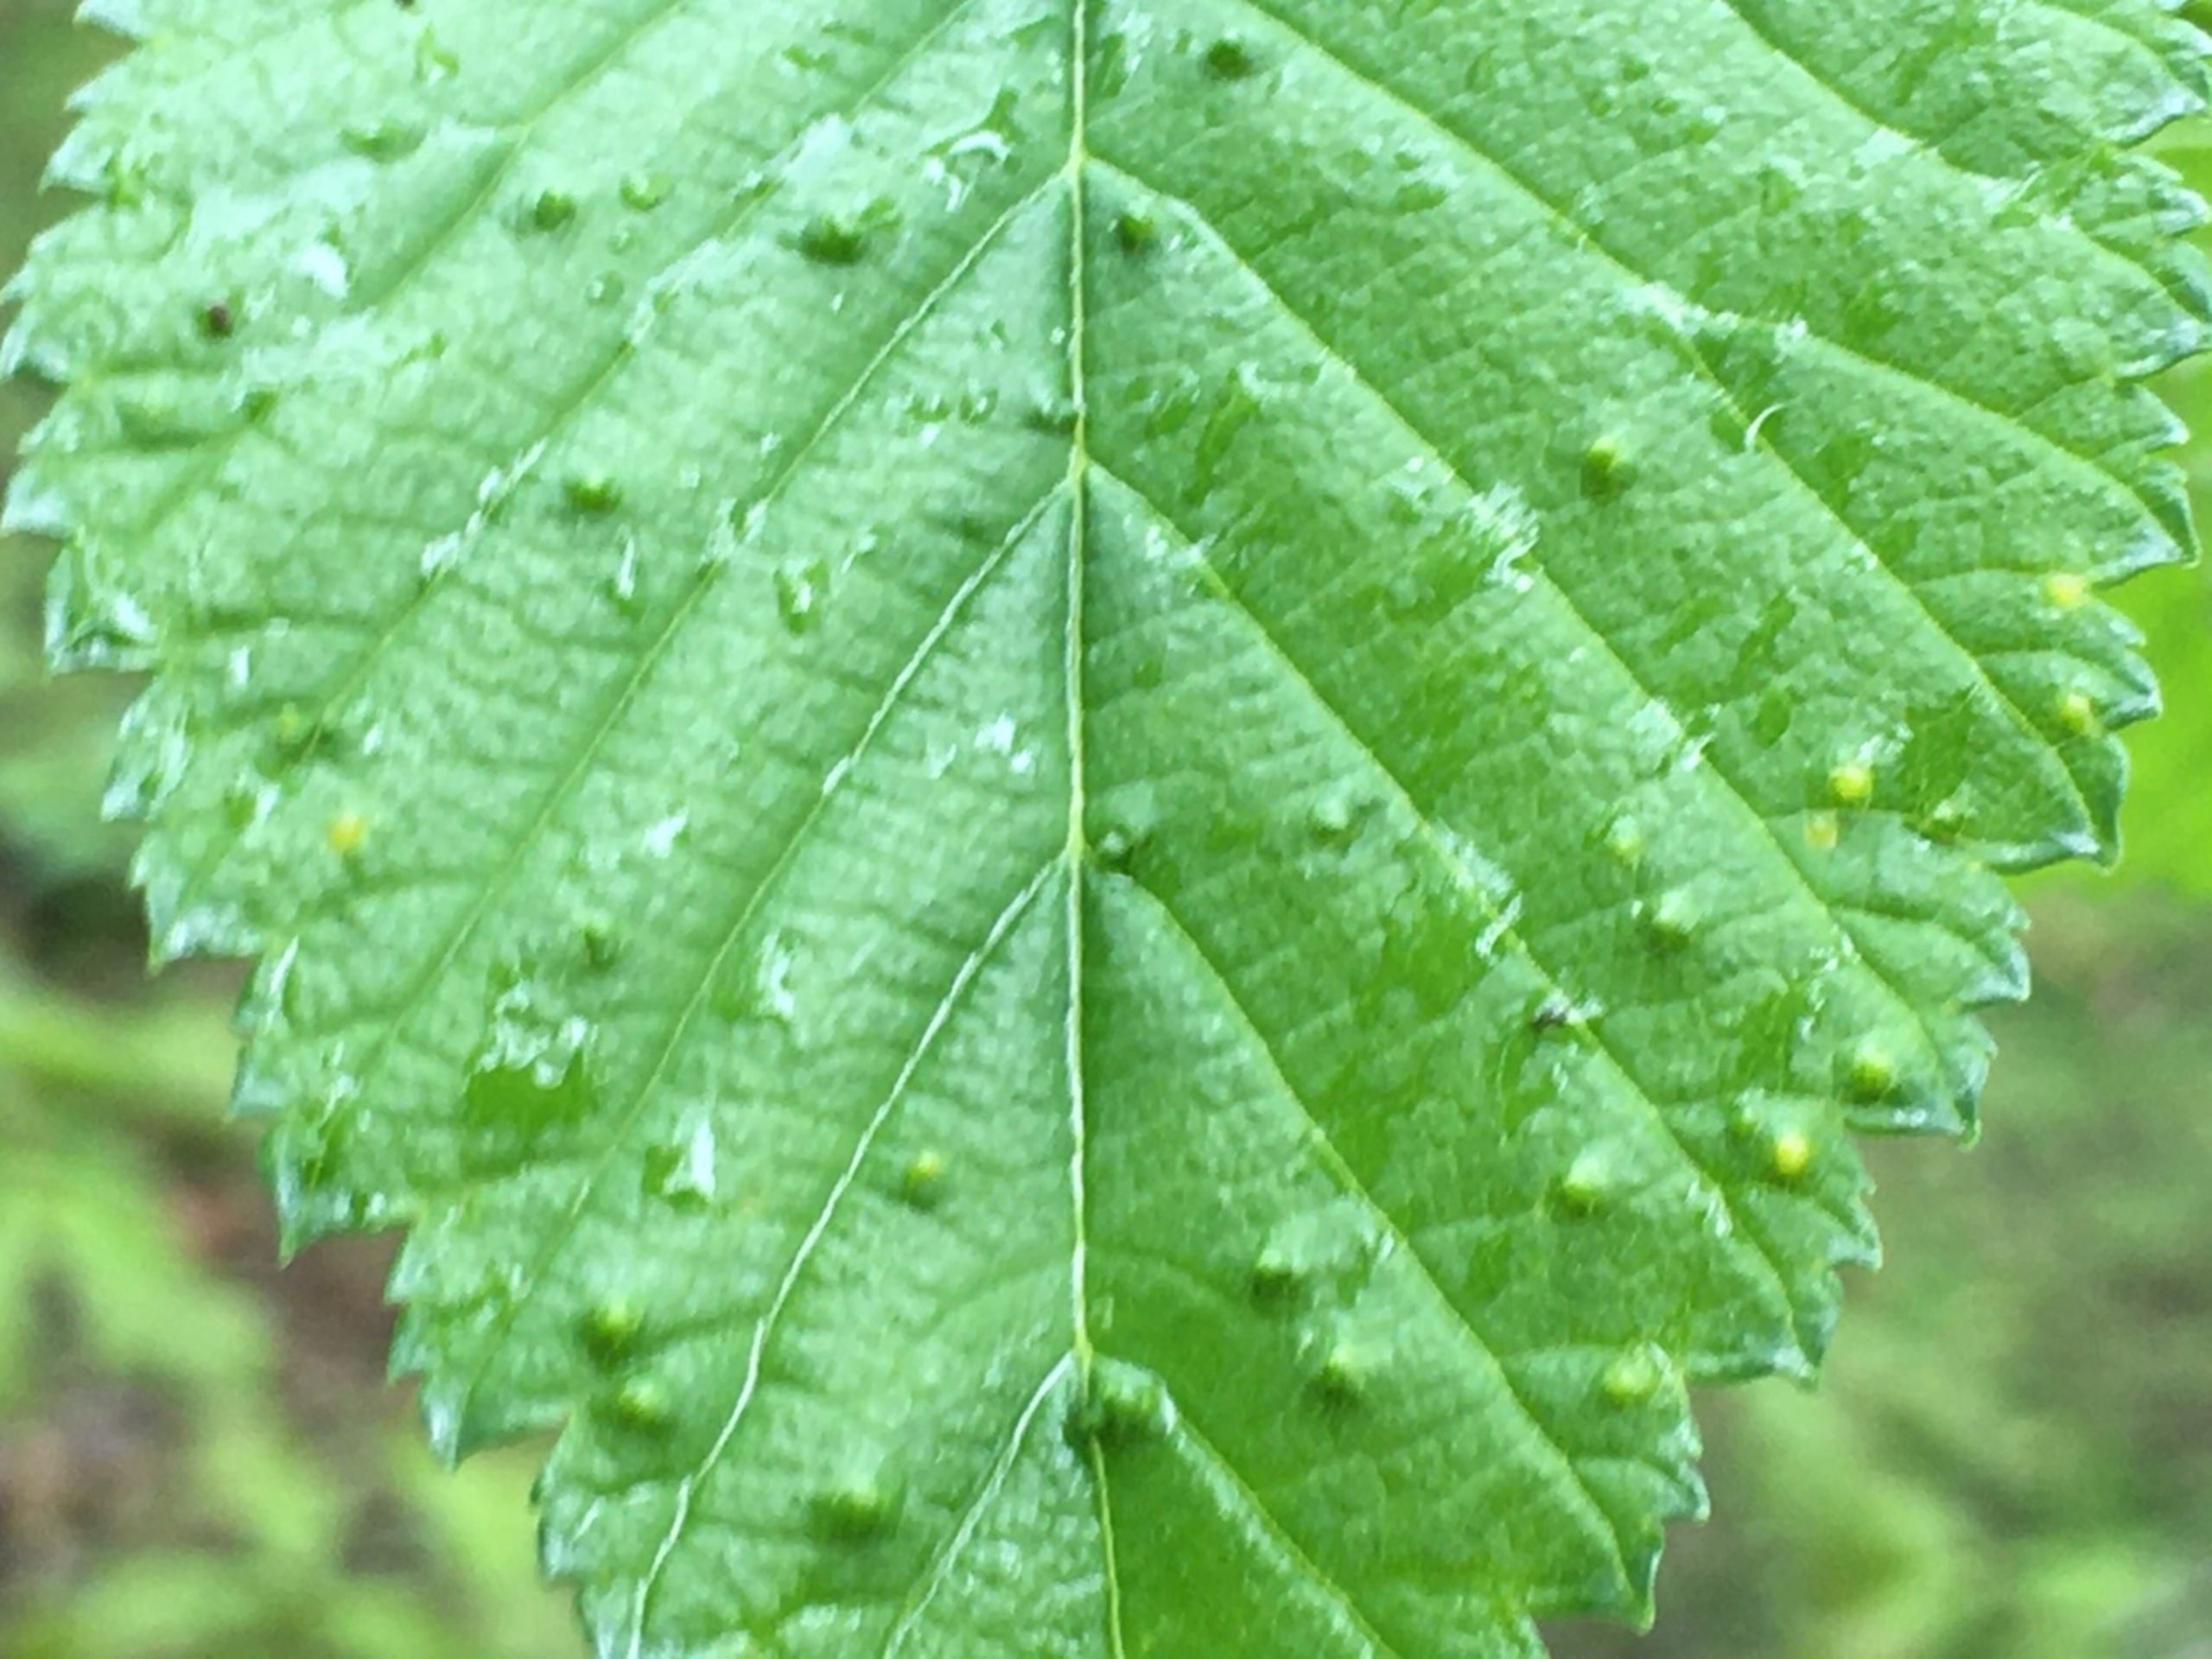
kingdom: Animalia
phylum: Arthropoda
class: Arachnida
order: Trombidiformes
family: Eriophyidae
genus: Aceria
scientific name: Aceria brevipunctata
